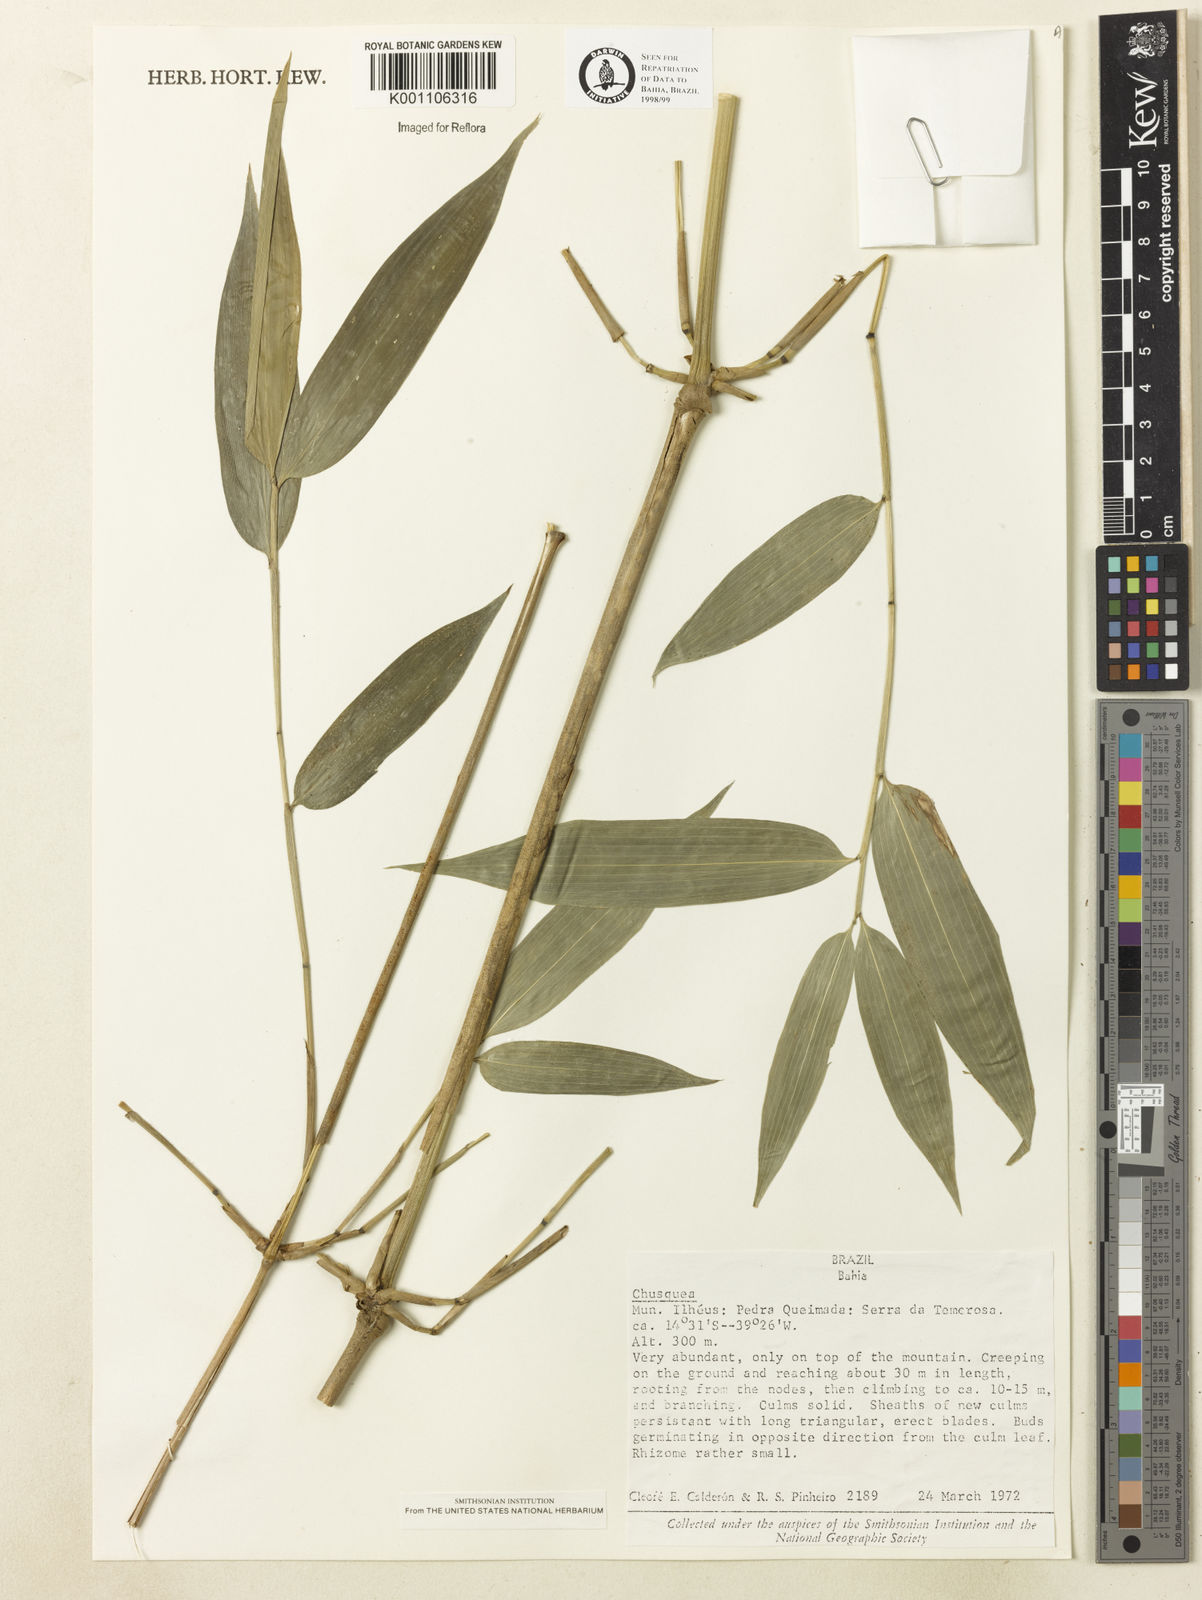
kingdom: Plantae
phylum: Tracheophyta
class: Liliopsida
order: Poales
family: Poaceae
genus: Chusquea
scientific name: Chusquea
